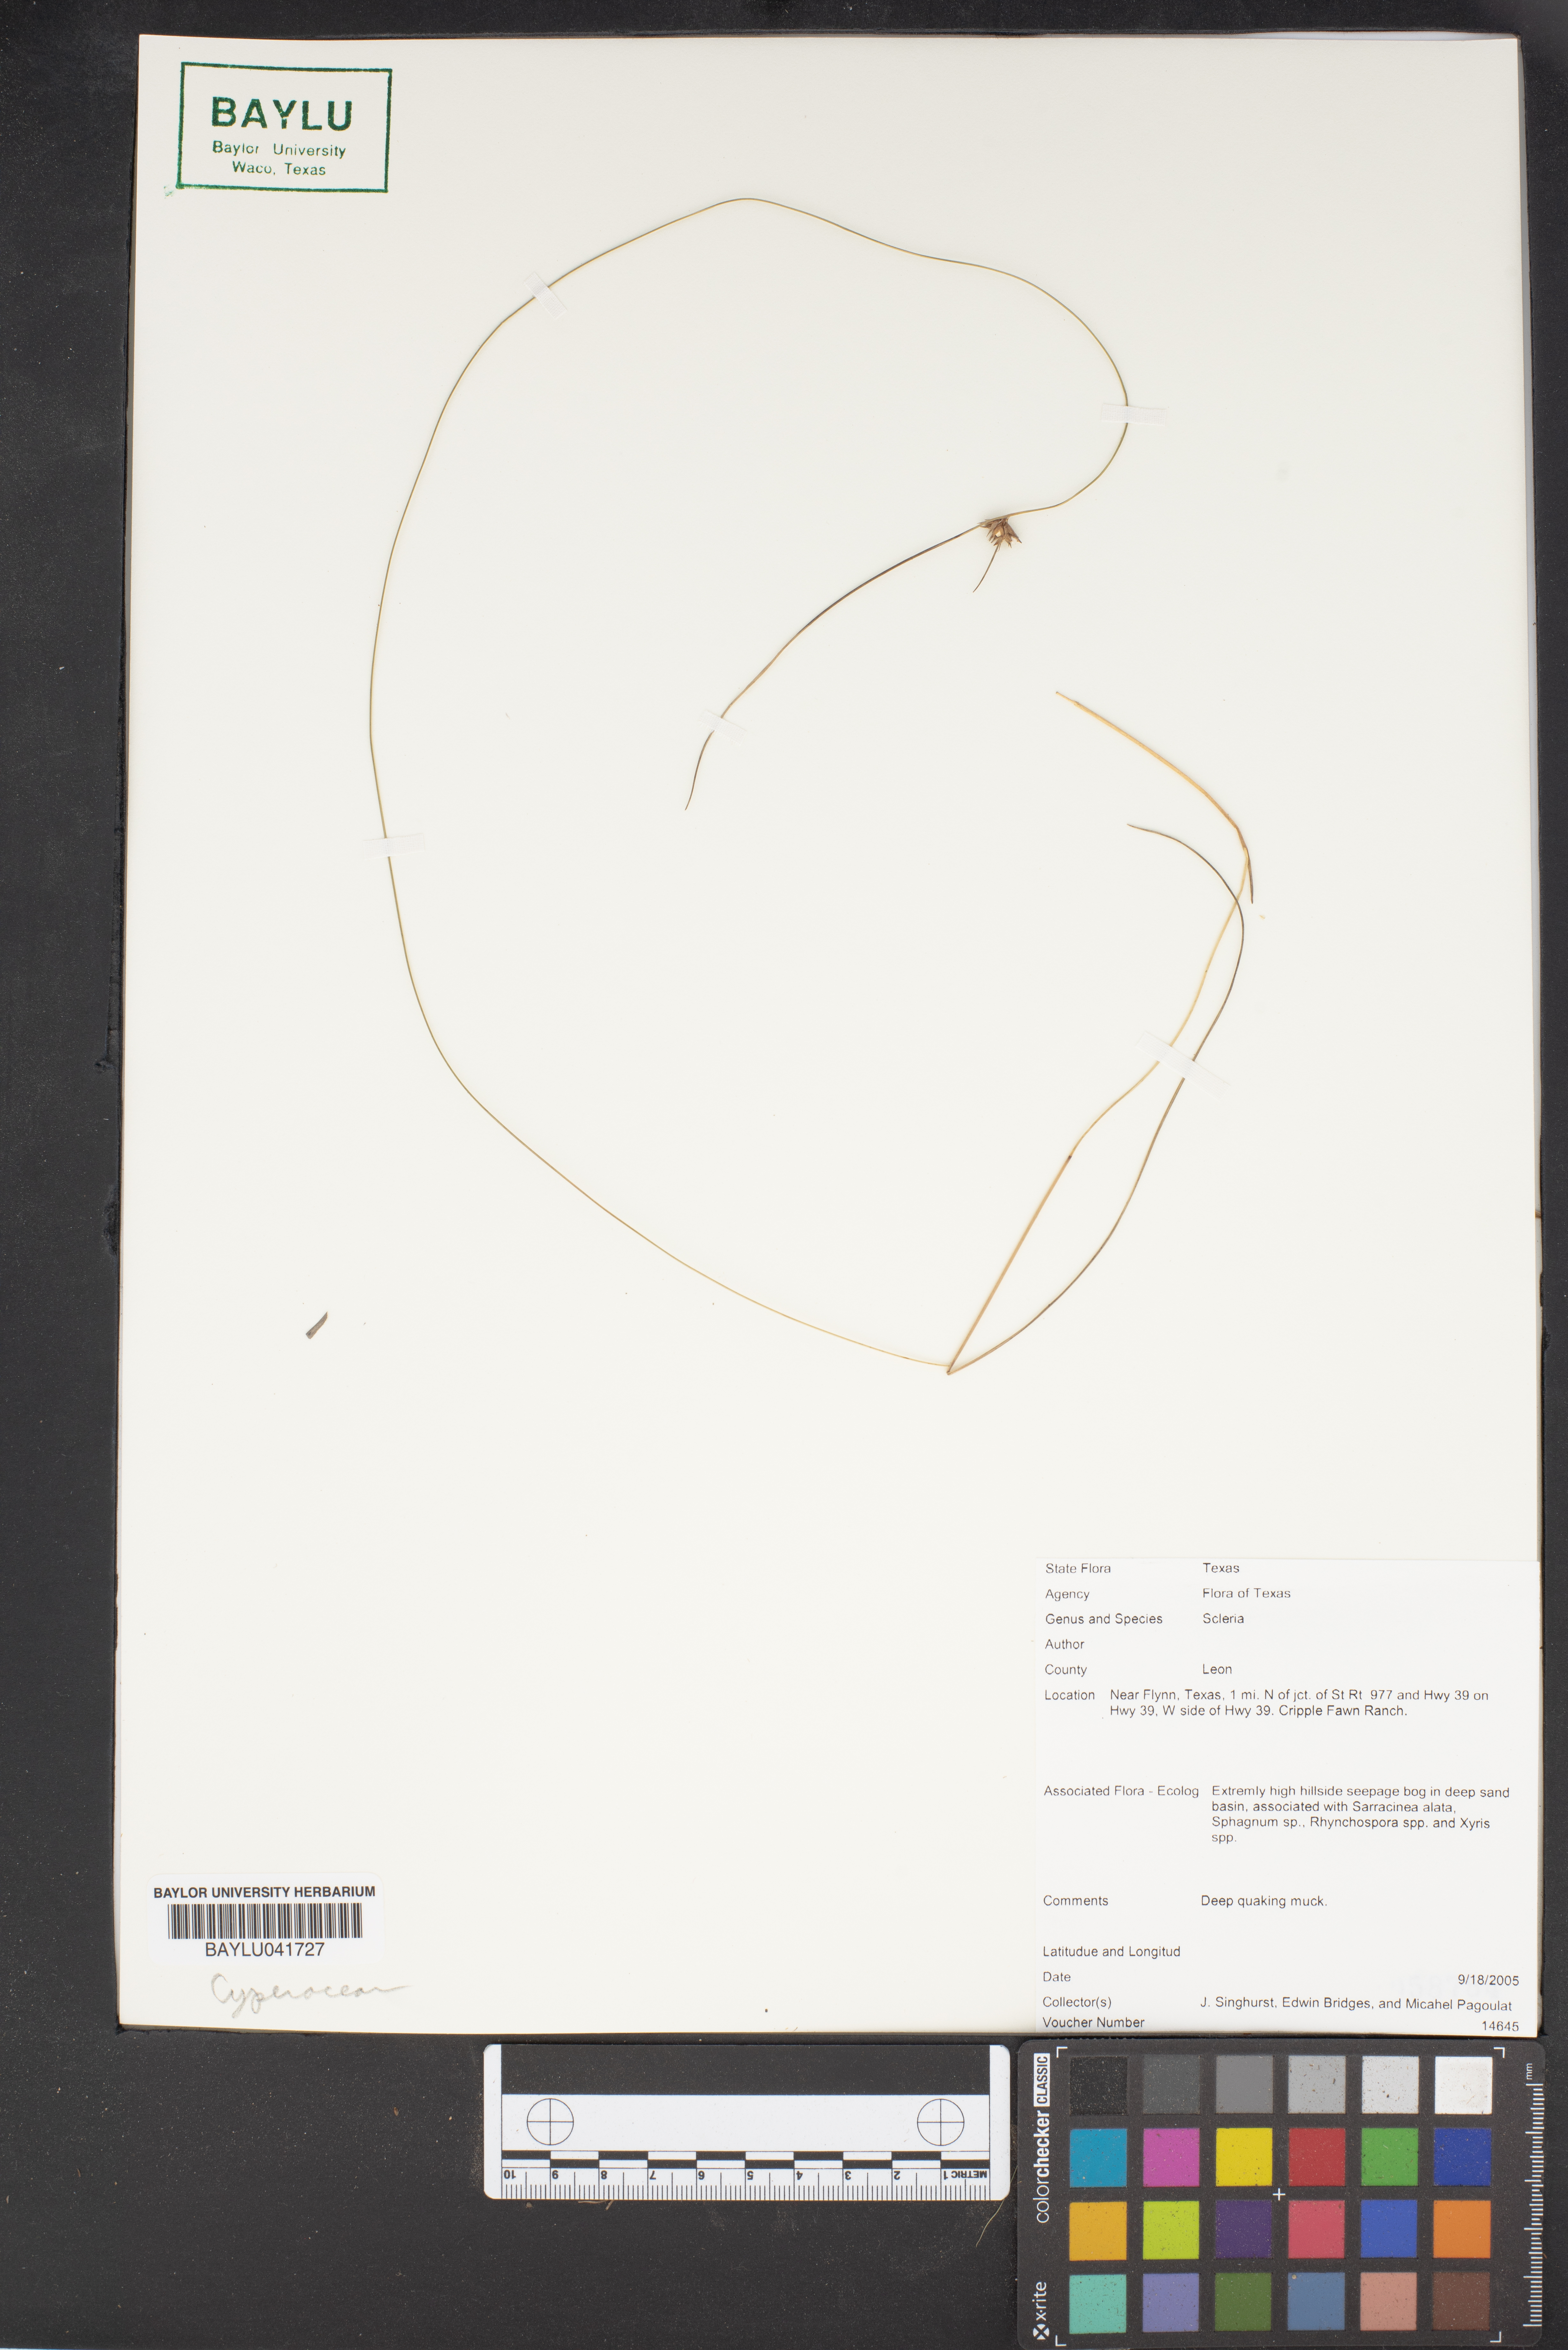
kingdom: Plantae
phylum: Tracheophyta
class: Liliopsida
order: Poales
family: Cyperaceae
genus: Scleria
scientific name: Scleria
